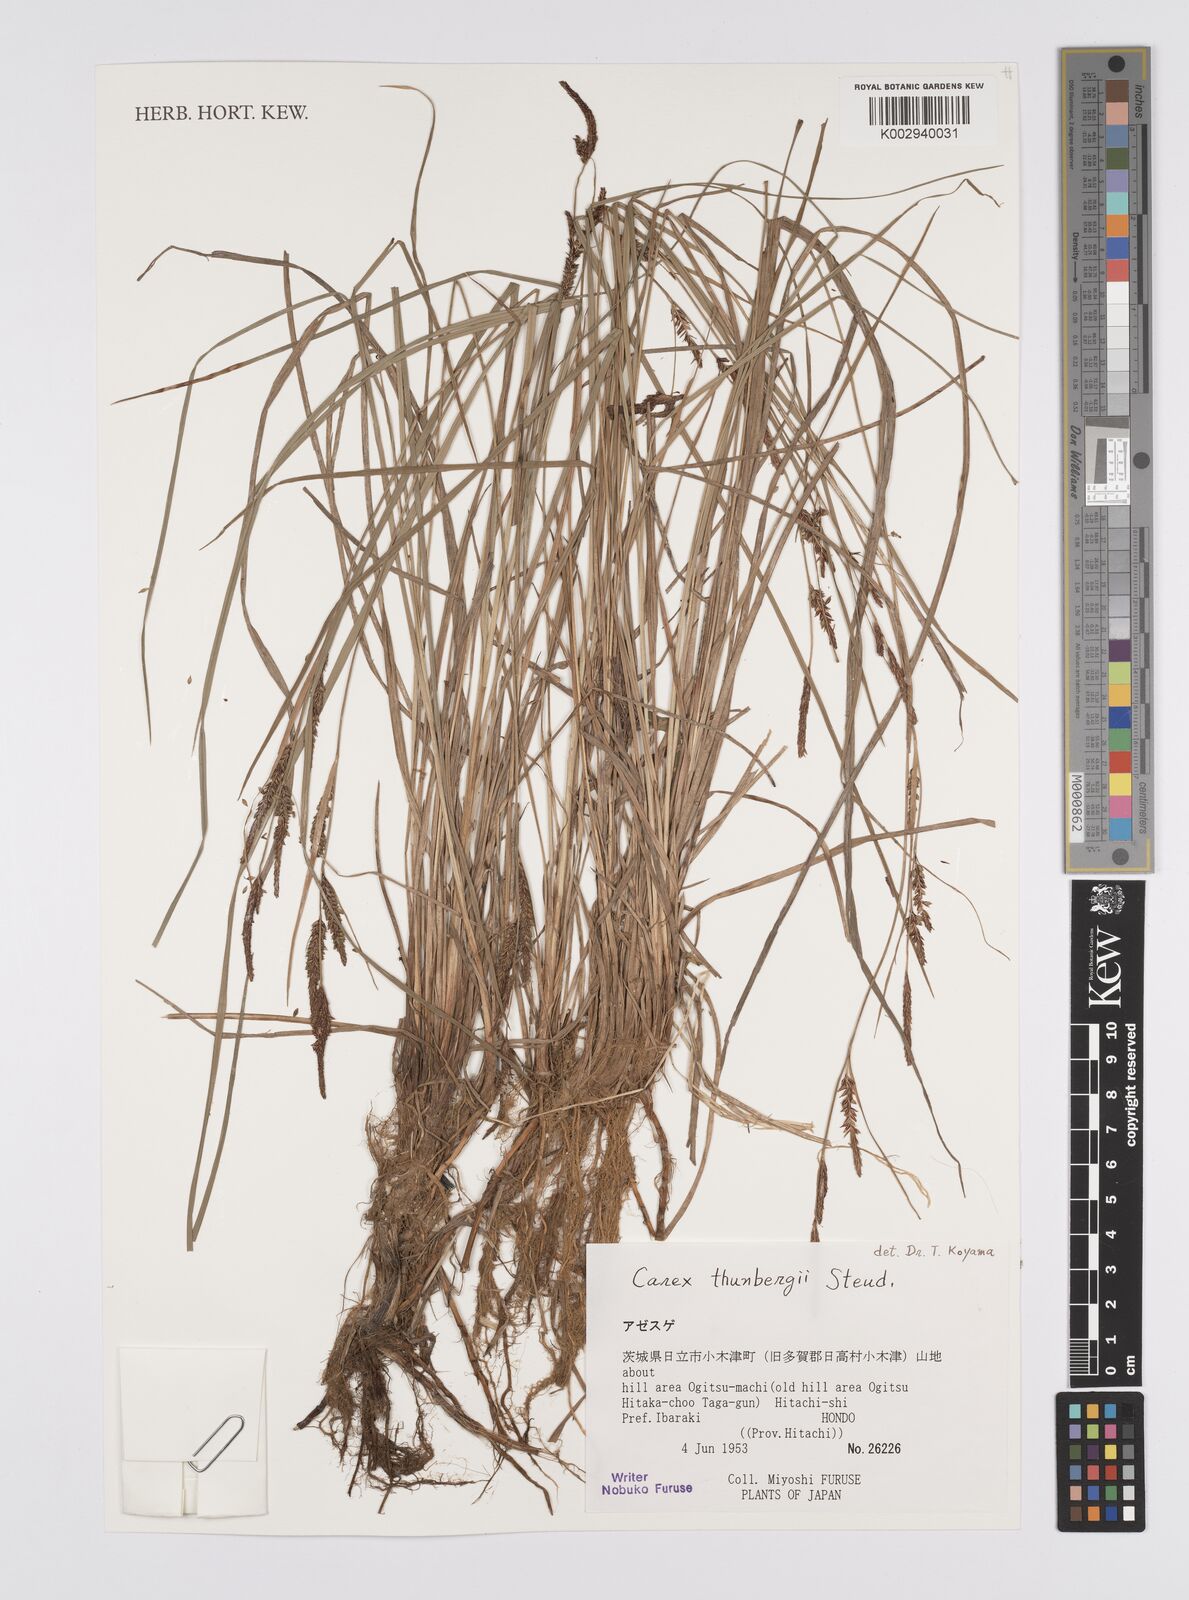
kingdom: Plantae
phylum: Tracheophyta
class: Liliopsida
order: Poales
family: Cyperaceae
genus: Carex
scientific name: Carex thunbergii
